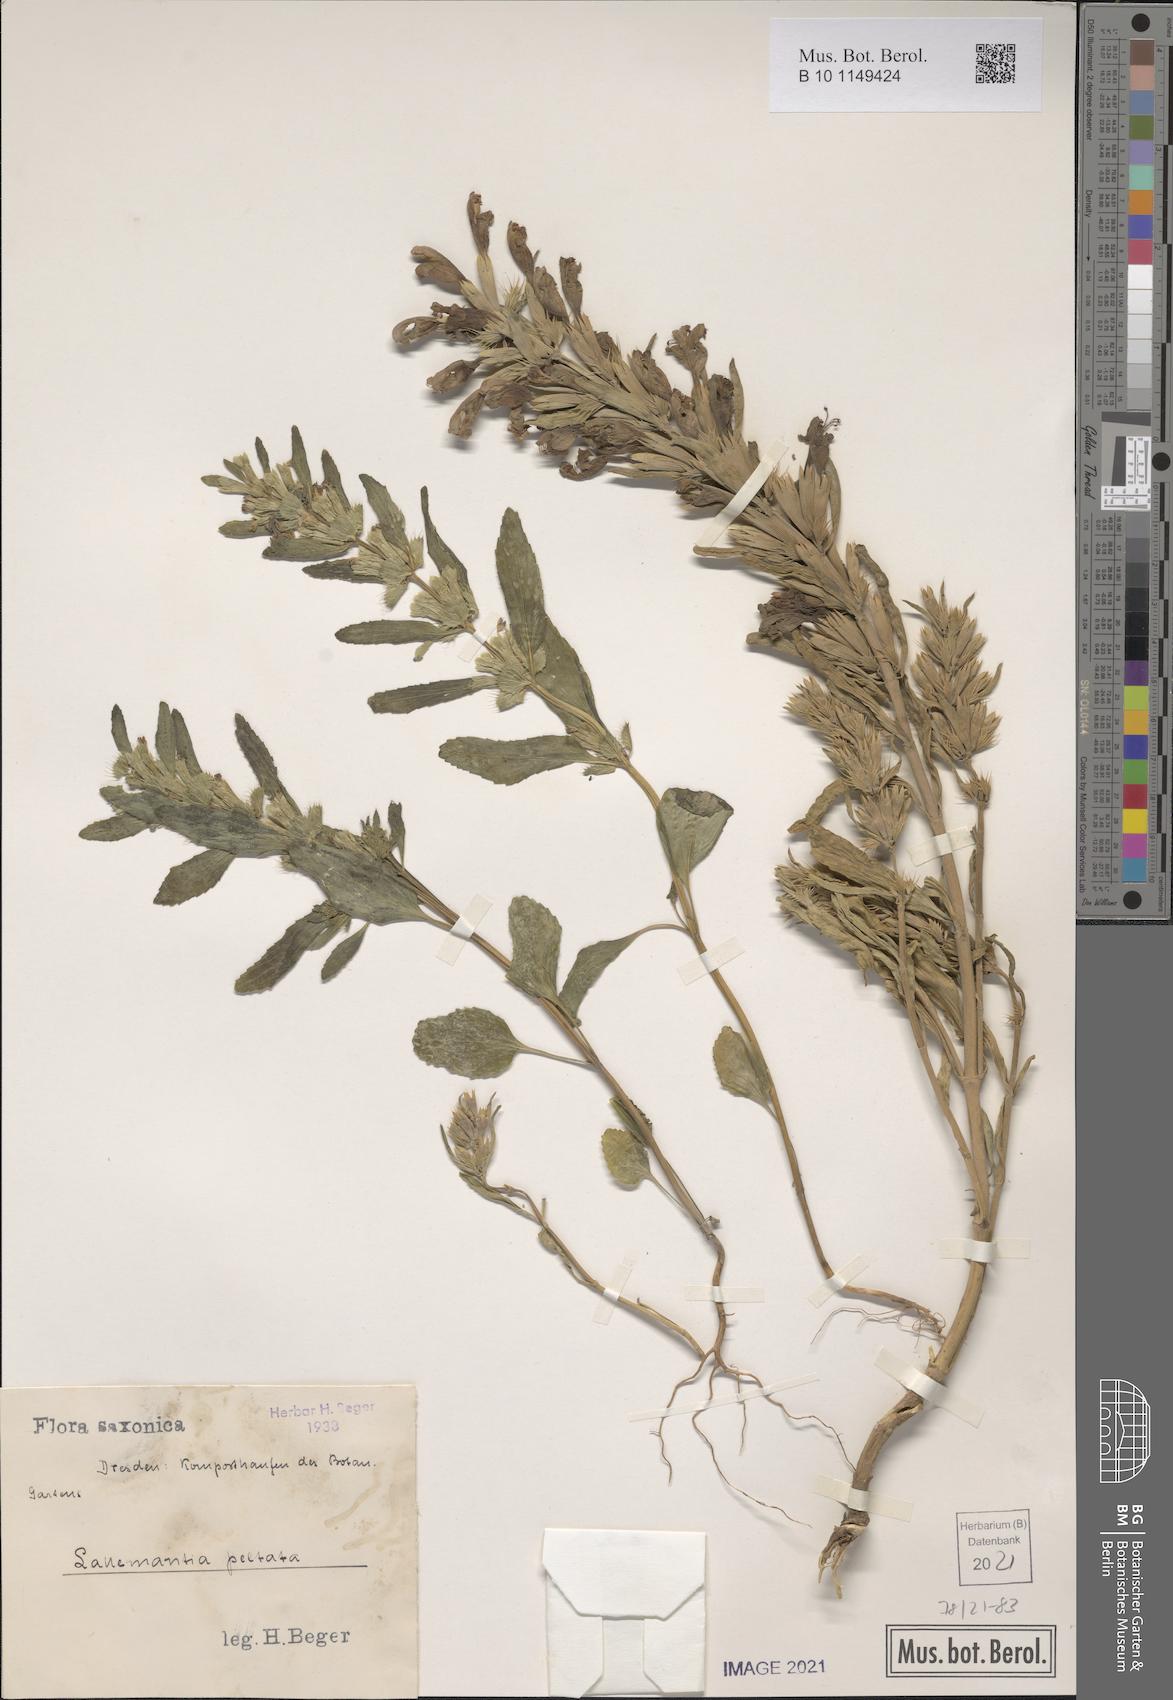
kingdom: Plantae
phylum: Tracheophyta
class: Magnoliopsida
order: Lamiales
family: Lamiaceae
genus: Lallemantia
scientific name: Lallemantia peltata
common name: Lion's heart
